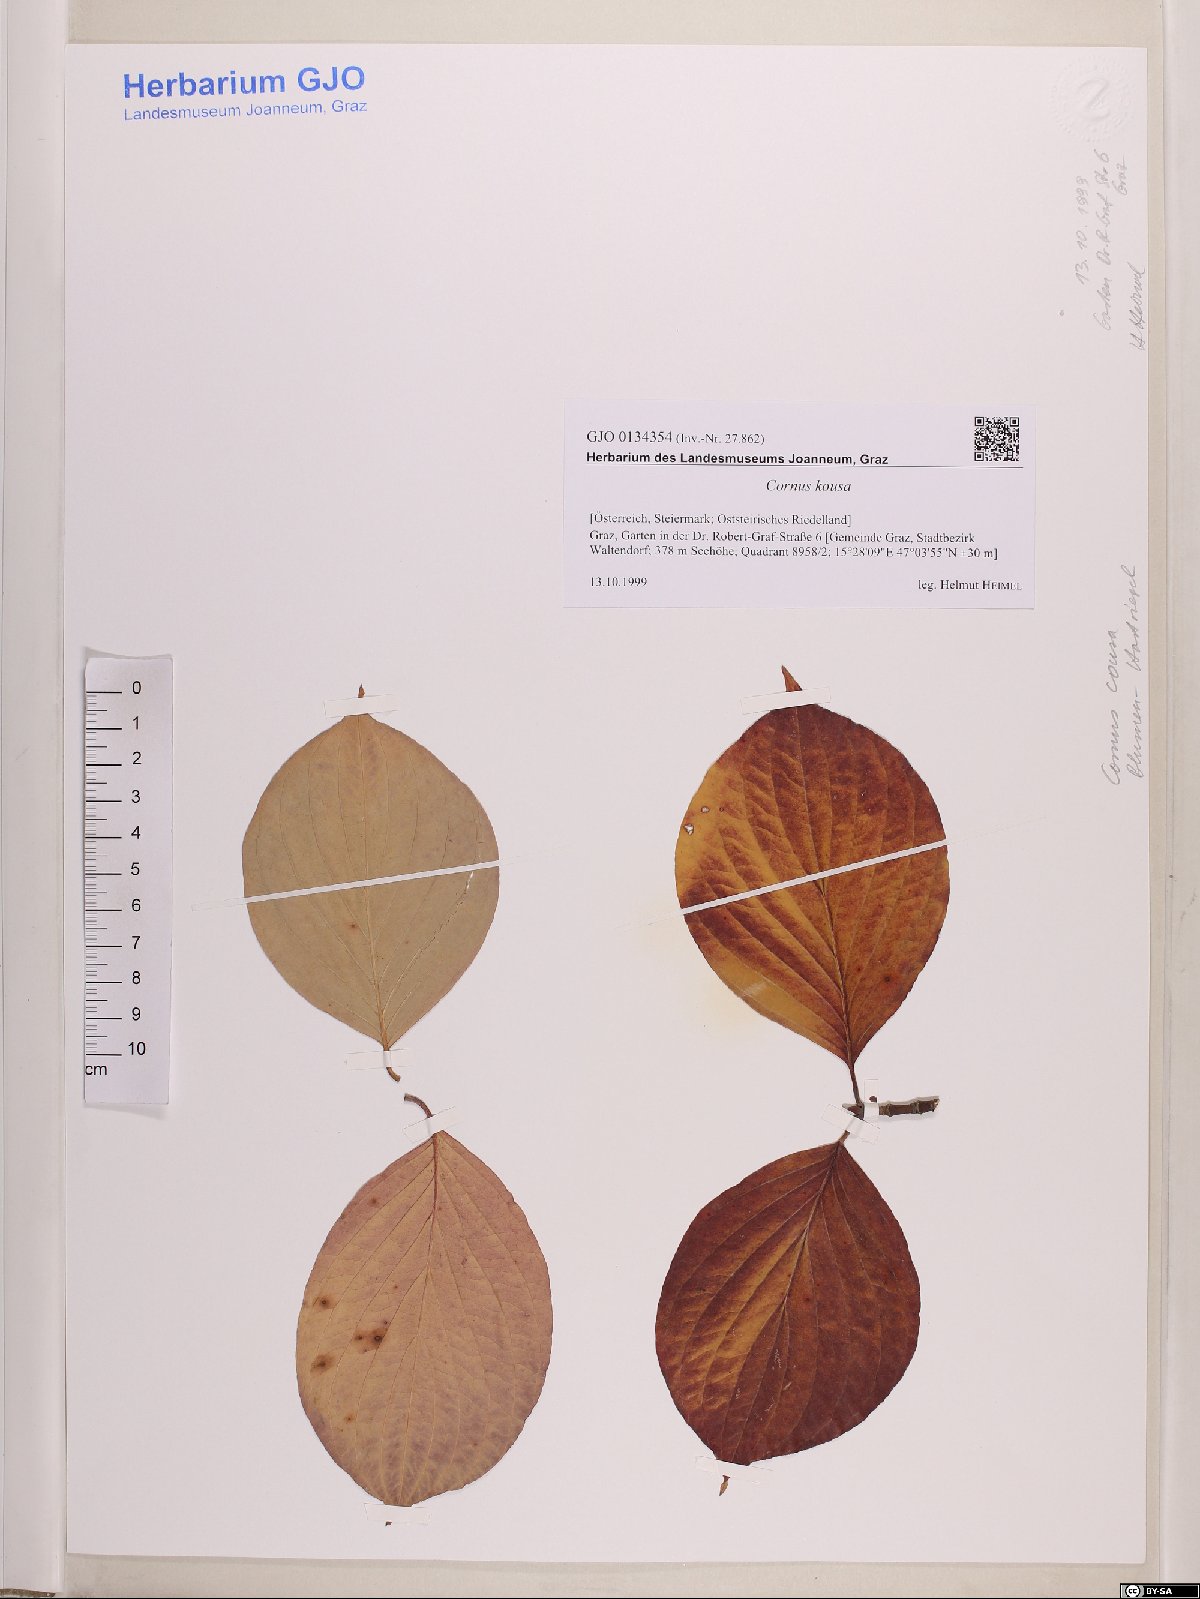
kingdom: Plantae
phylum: Tracheophyta
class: Magnoliopsida
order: Cornales
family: Cornaceae
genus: Cornus
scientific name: Cornus kousa
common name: Japanese dogwood
